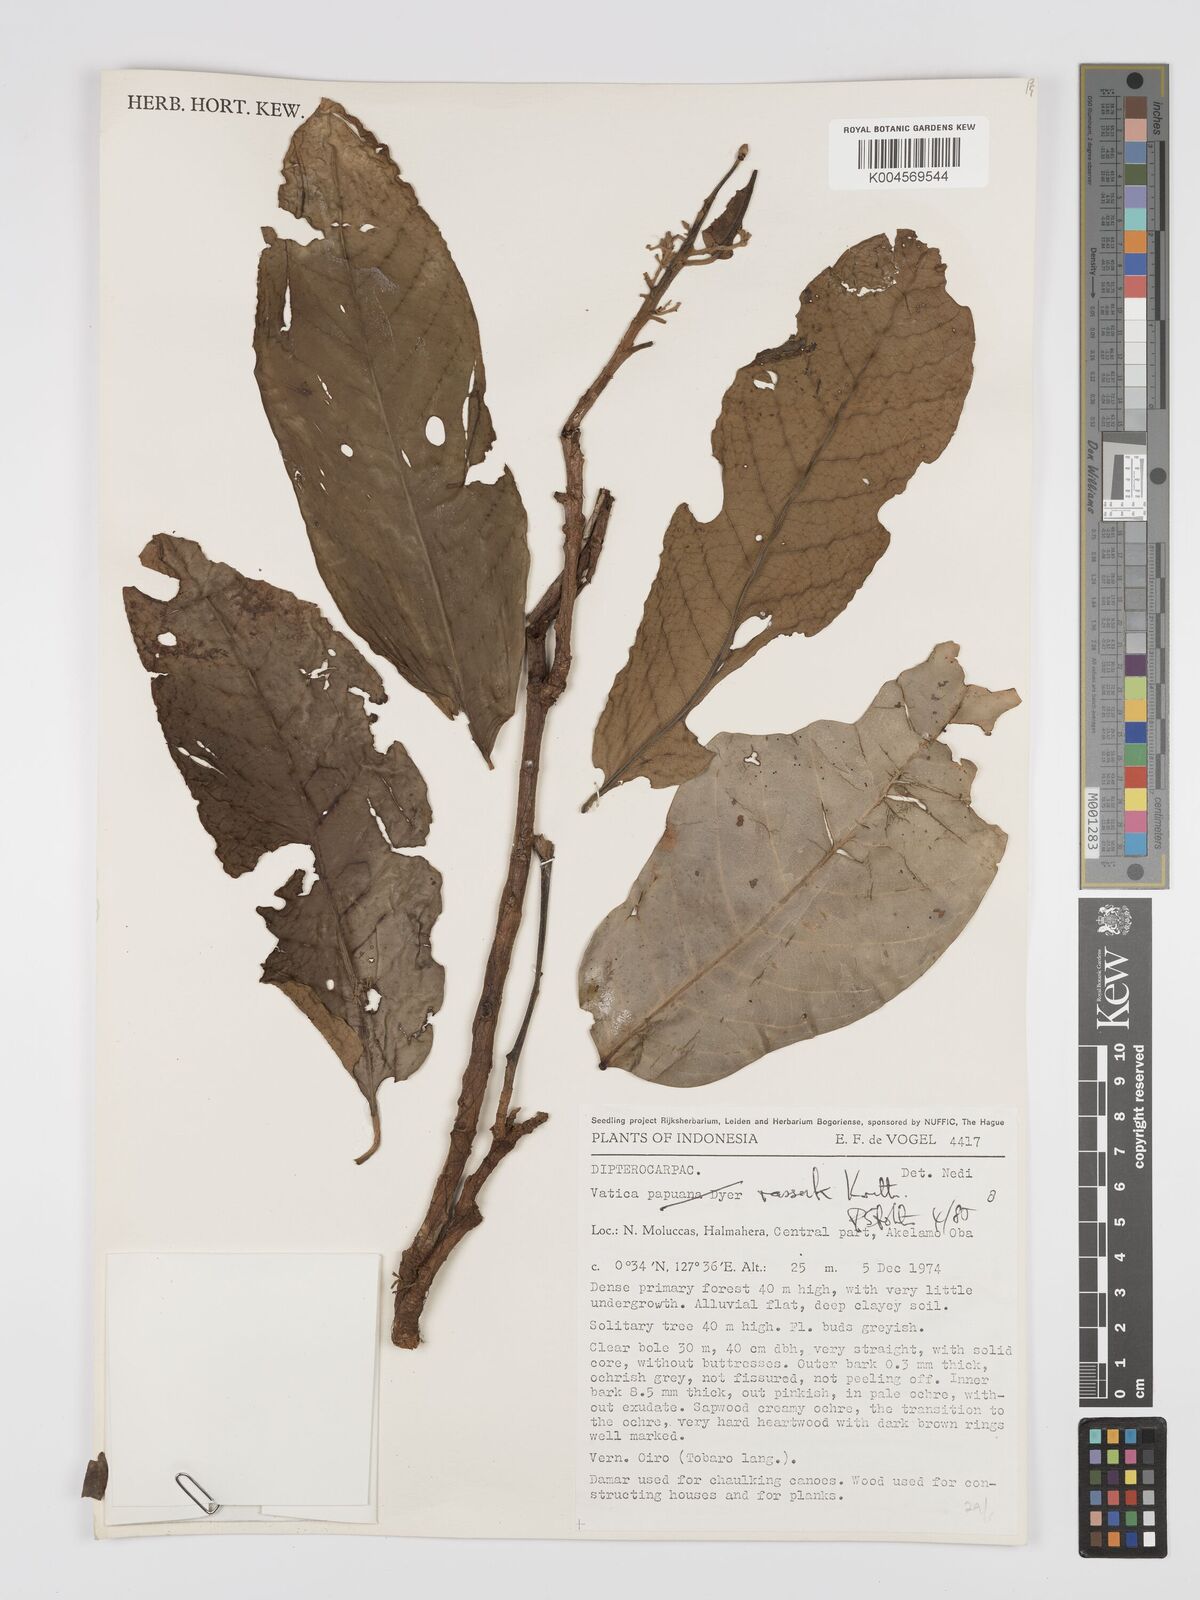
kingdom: Plantae
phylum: Tracheophyta
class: Magnoliopsida
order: Malvales
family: Dipterocarpaceae
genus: Vatica
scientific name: Vatica rassak
